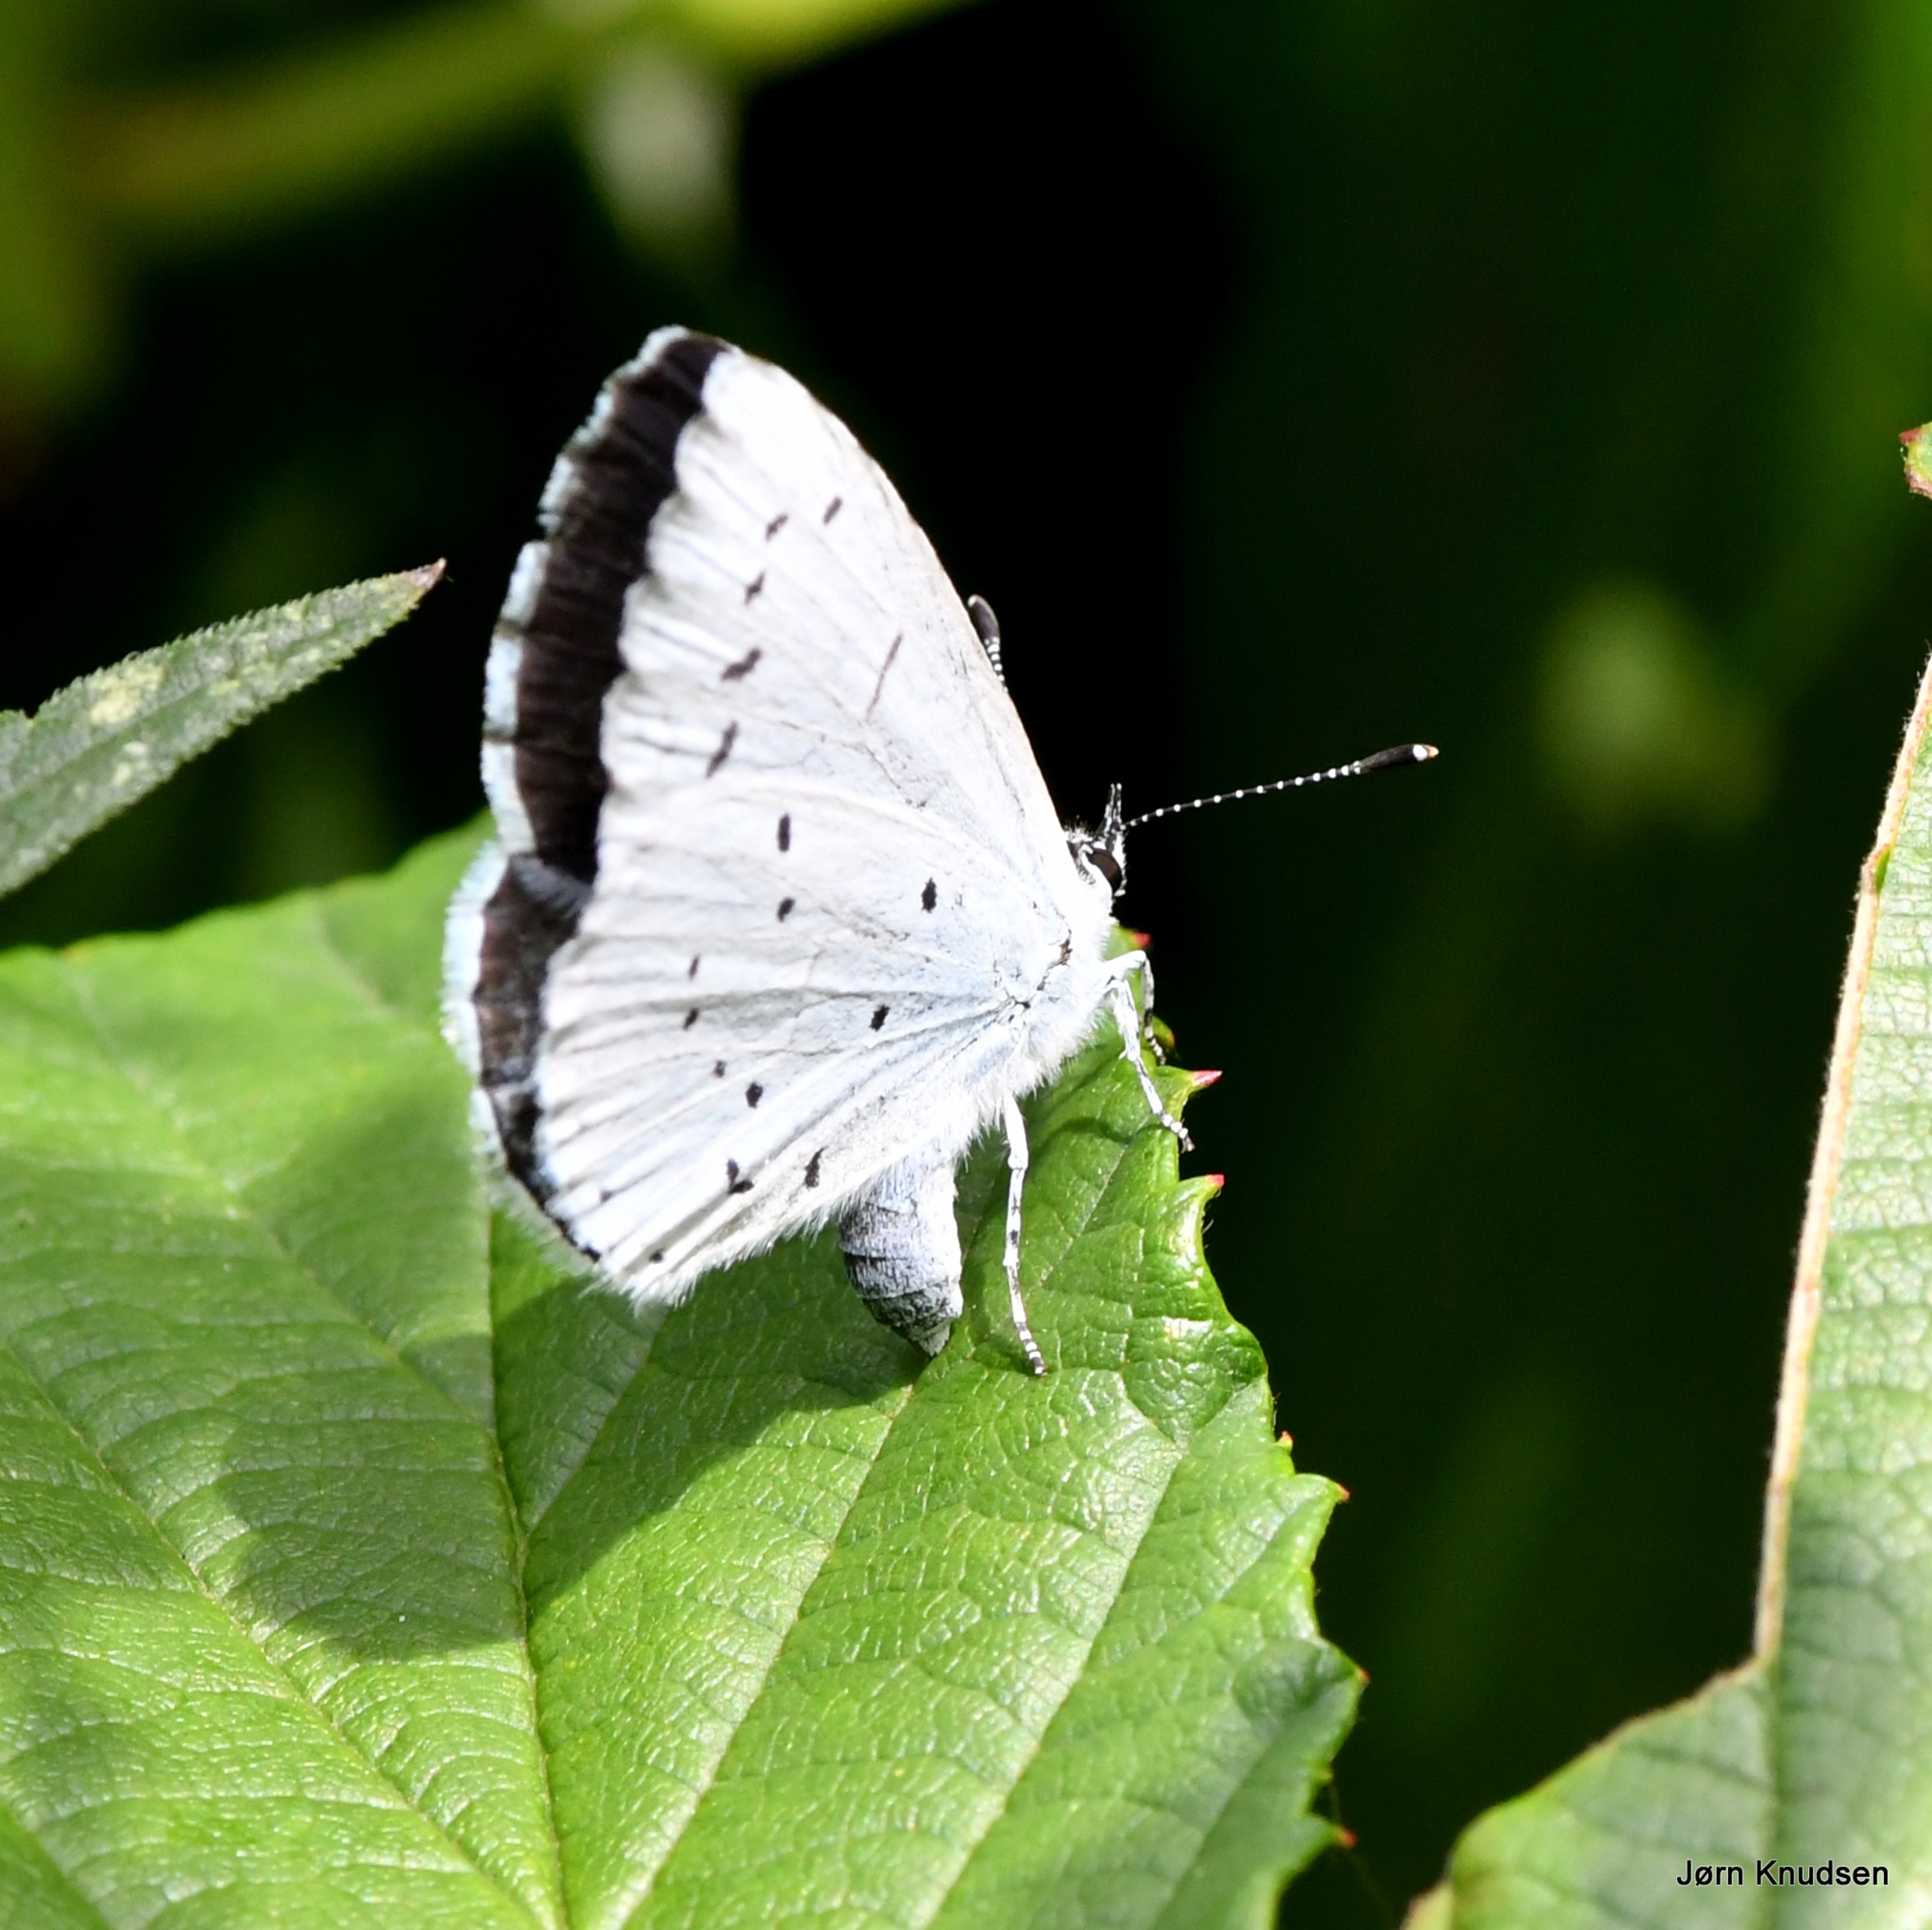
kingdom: Animalia
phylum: Arthropoda
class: Insecta
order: Lepidoptera
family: Lycaenidae
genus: Celastrina
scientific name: Celastrina argiolus
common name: Skovblåfugl
